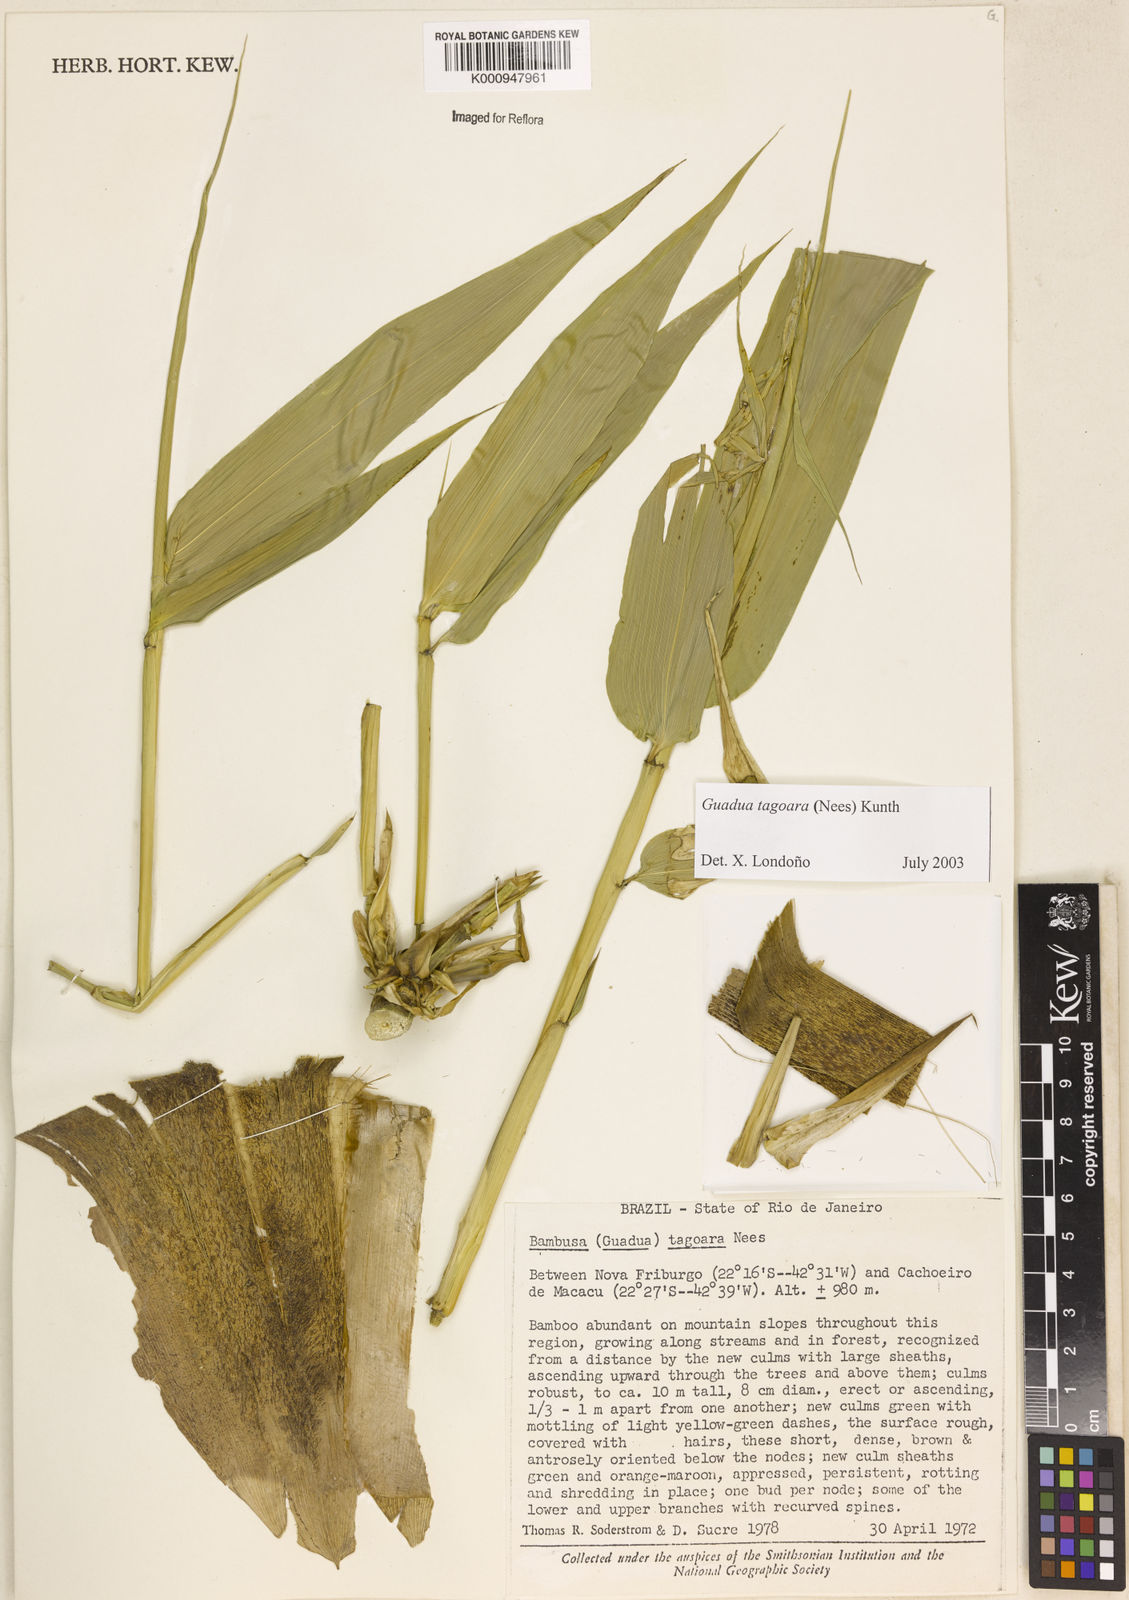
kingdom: Plantae
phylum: Tracheophyta
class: Liliopsida
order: Poales
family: Poaceae
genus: Guadua
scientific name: Guadua tagoara
